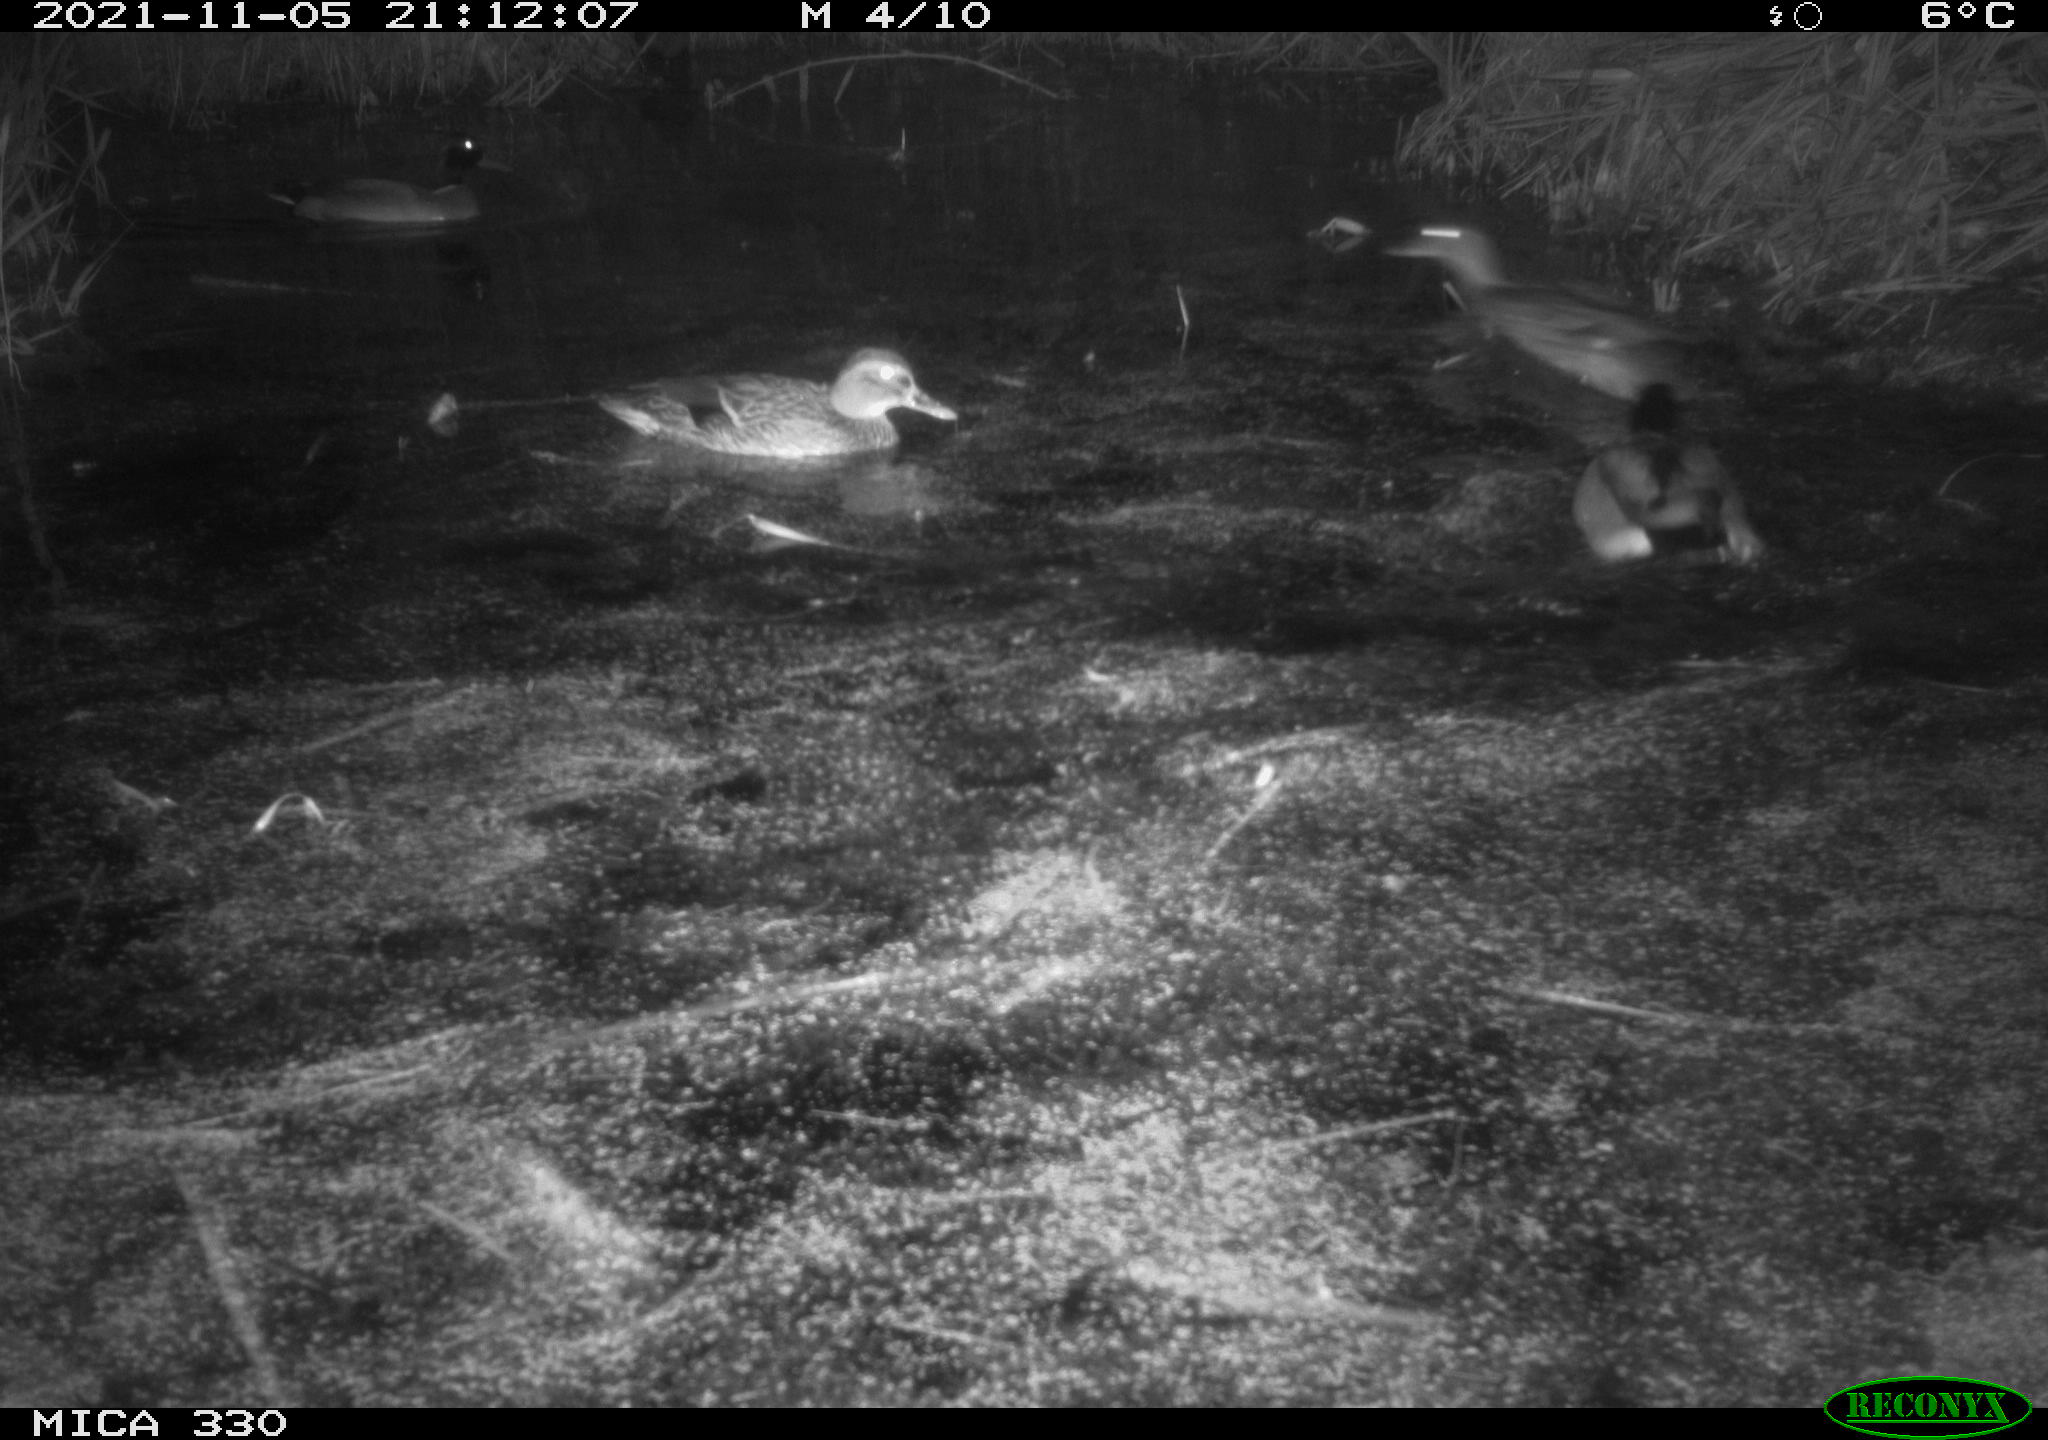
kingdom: Animalia
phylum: Chordata
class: Aves
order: Anseriformes
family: Anatidae
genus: Anas
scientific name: Anas platyrhynchos
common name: Mallard
